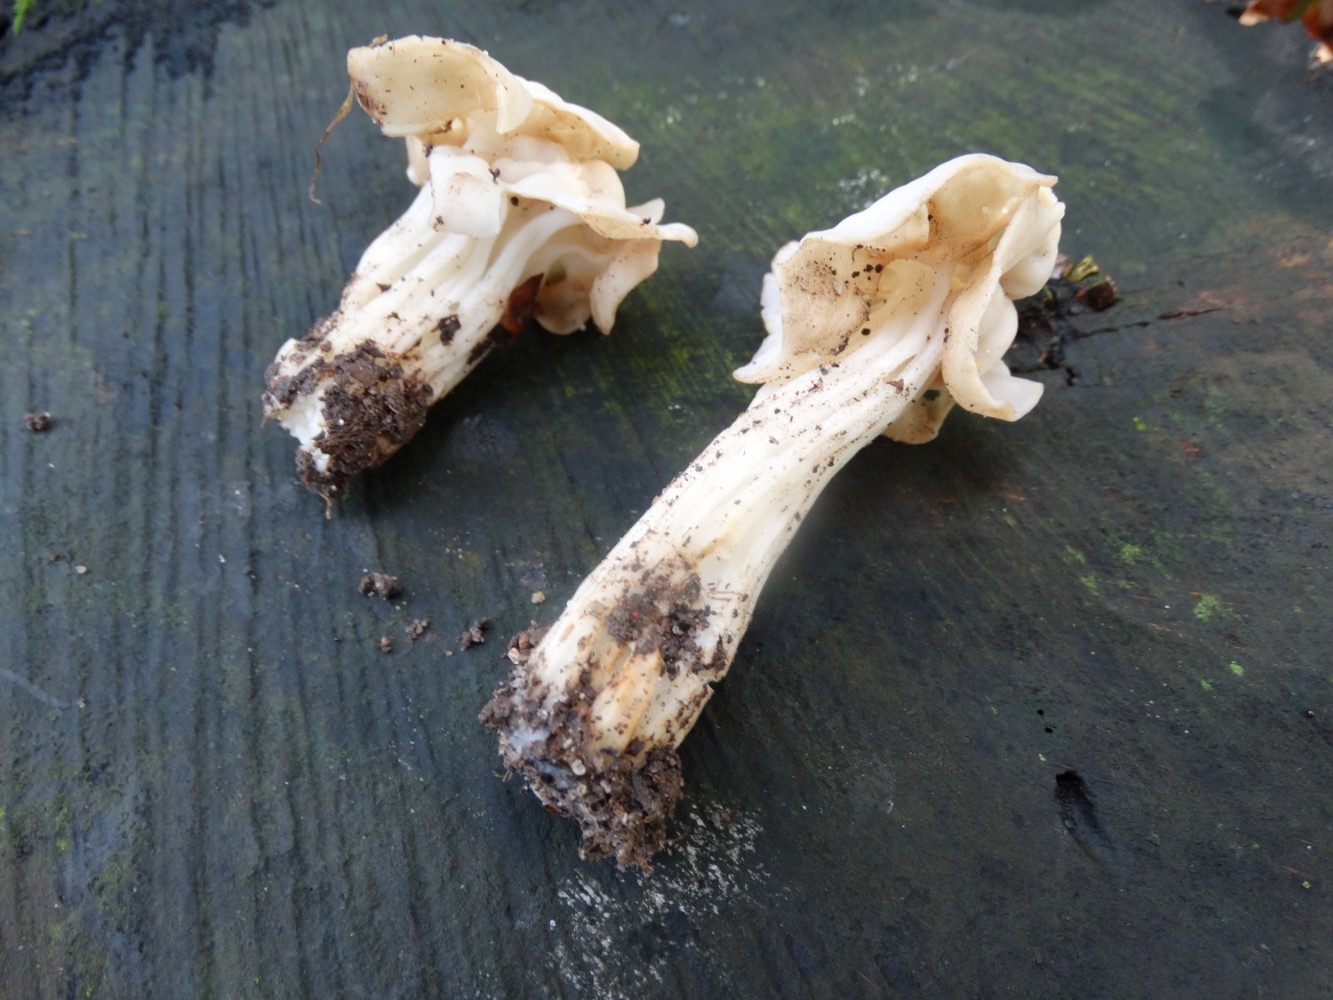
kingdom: Fungi
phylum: Ascomycota
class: Pezizomycetes
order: Pezizales
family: Helvellaceae
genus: Helvella
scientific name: Helvella crispa
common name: kruset foldhat
